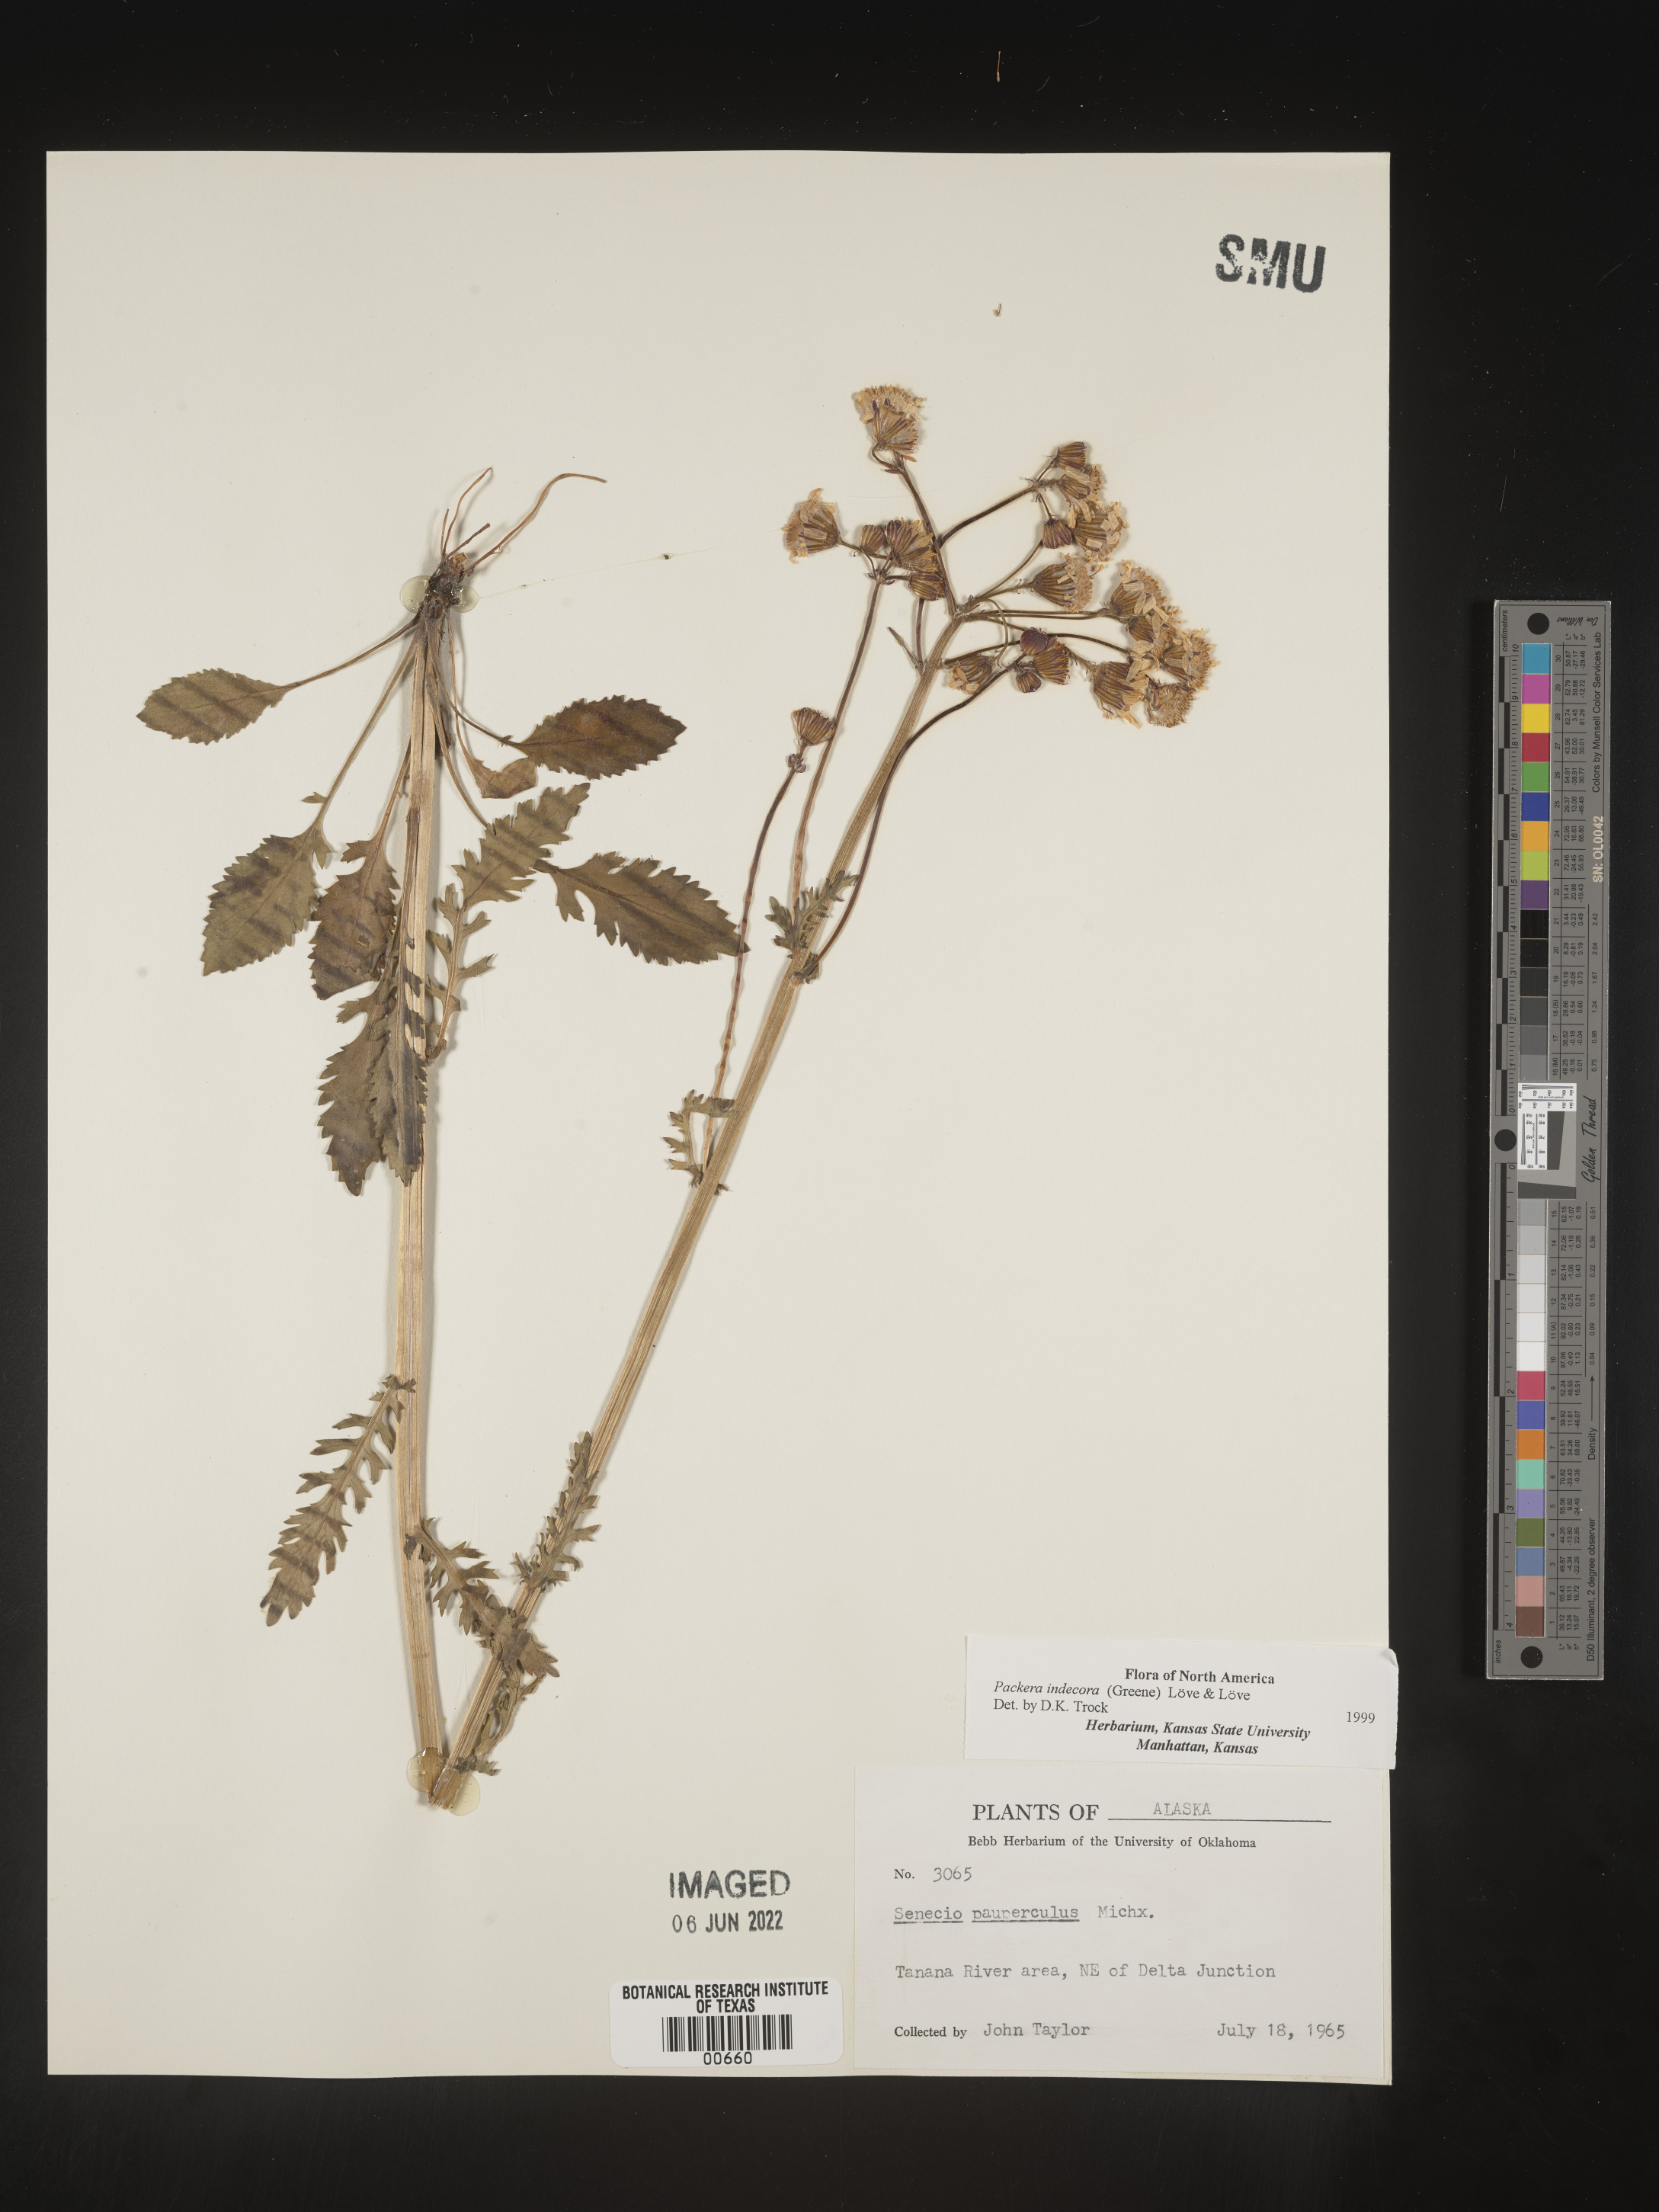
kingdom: Plantae
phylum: Tracheophyta
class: Magnoliopsida
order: Asterales
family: Asteraceae
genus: Packera
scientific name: Packera
